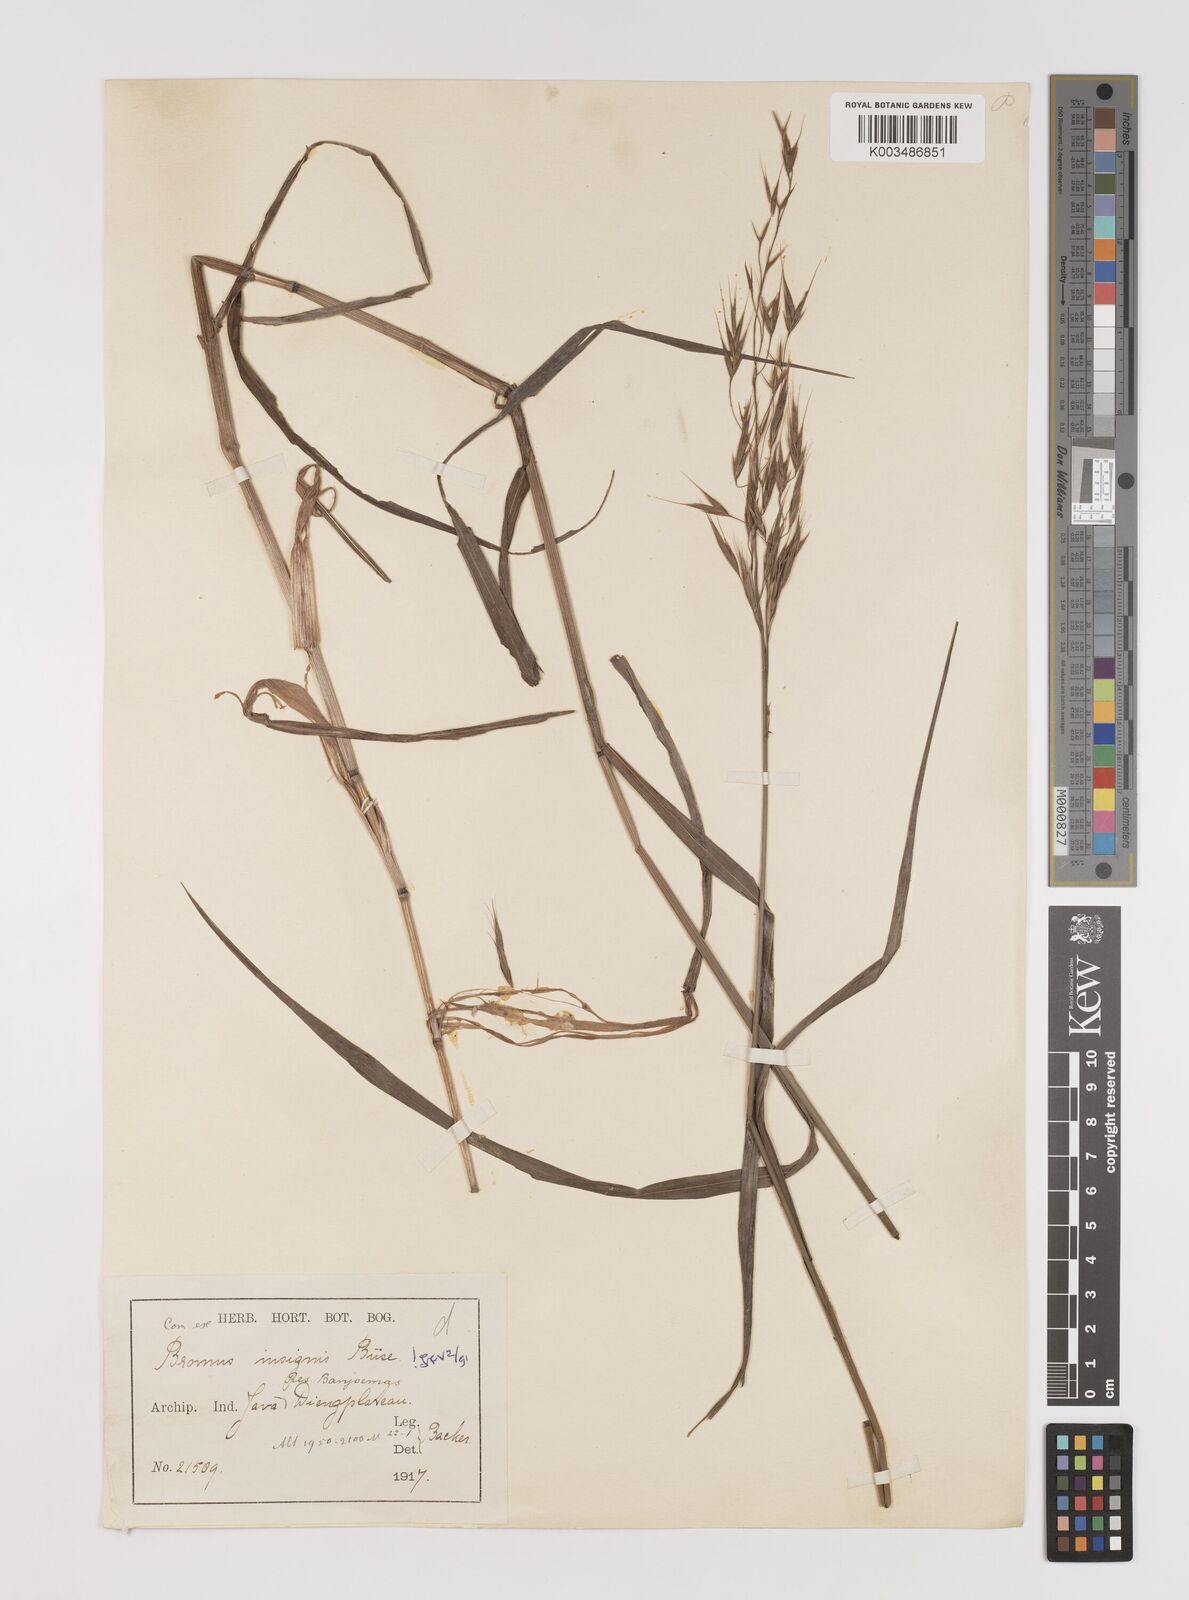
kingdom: Plantae
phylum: Tracheophyta
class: Liliopsida
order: Poales
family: Poaceae
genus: Bromus
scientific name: Bromus insignis
